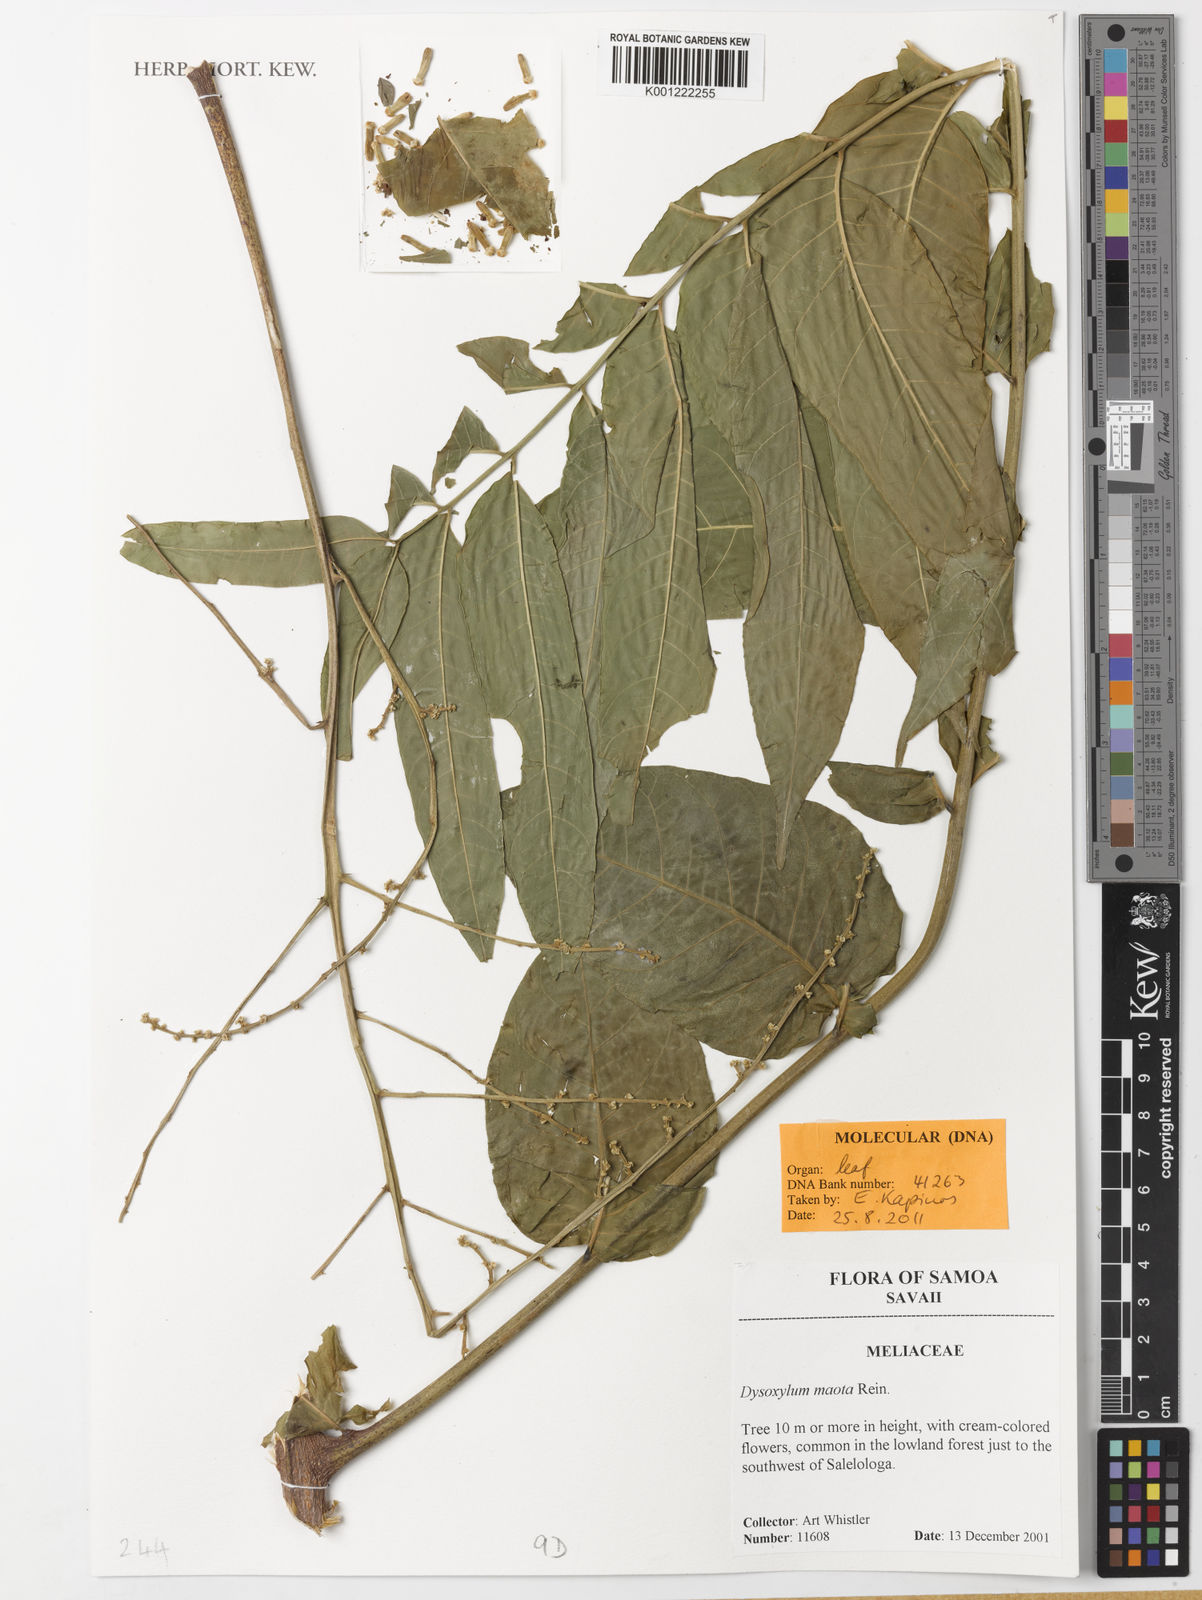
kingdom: Plantae
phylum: Tracheophyta
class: Magnoliopsida
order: Sapindales
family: Meliaceae
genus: Didymocheton
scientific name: Didymocheton maota
